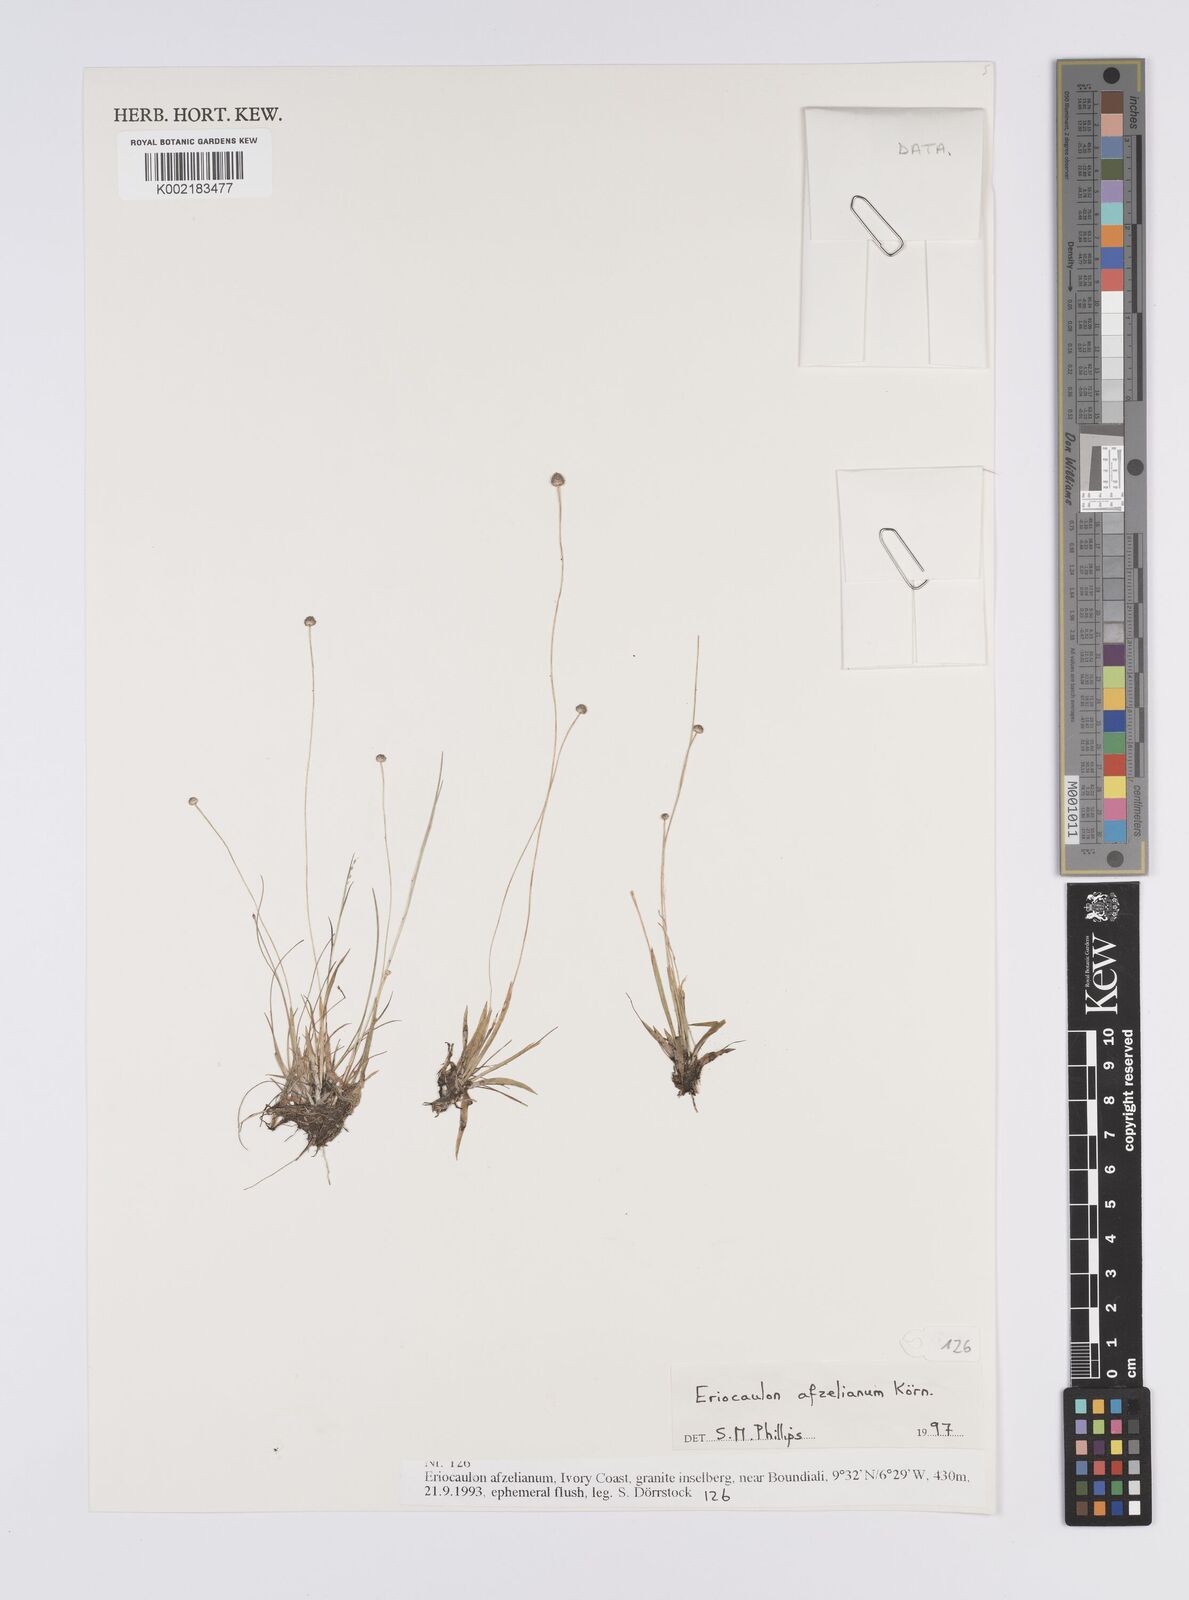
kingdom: Plantae
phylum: Tracheophyta
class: Liliopsida
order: Poales
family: Eriocaulaceae
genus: Eriocaulon
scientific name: Eriocaulon afzelianum
